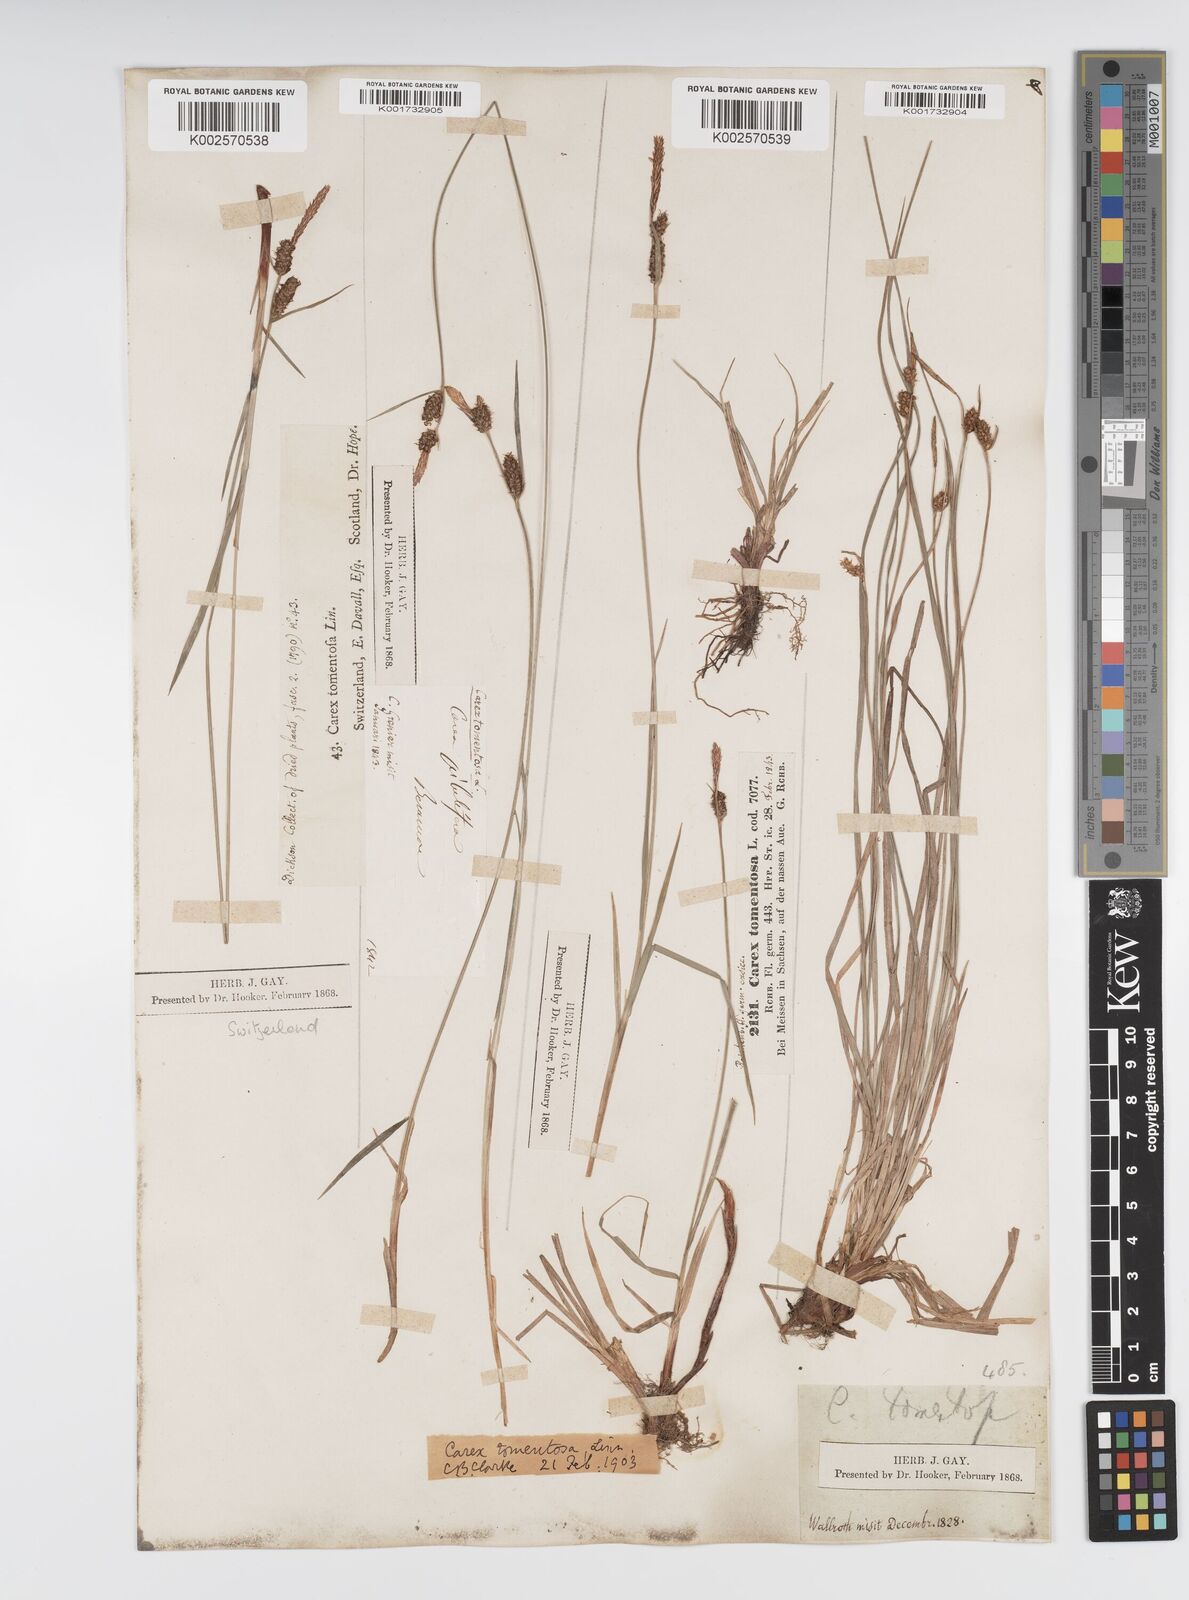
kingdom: Plantae
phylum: Tracheophyta
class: Liliopsida
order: Poales
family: Cyperaceae
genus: Carex
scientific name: Carex montana
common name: Soft-leaved sedge
